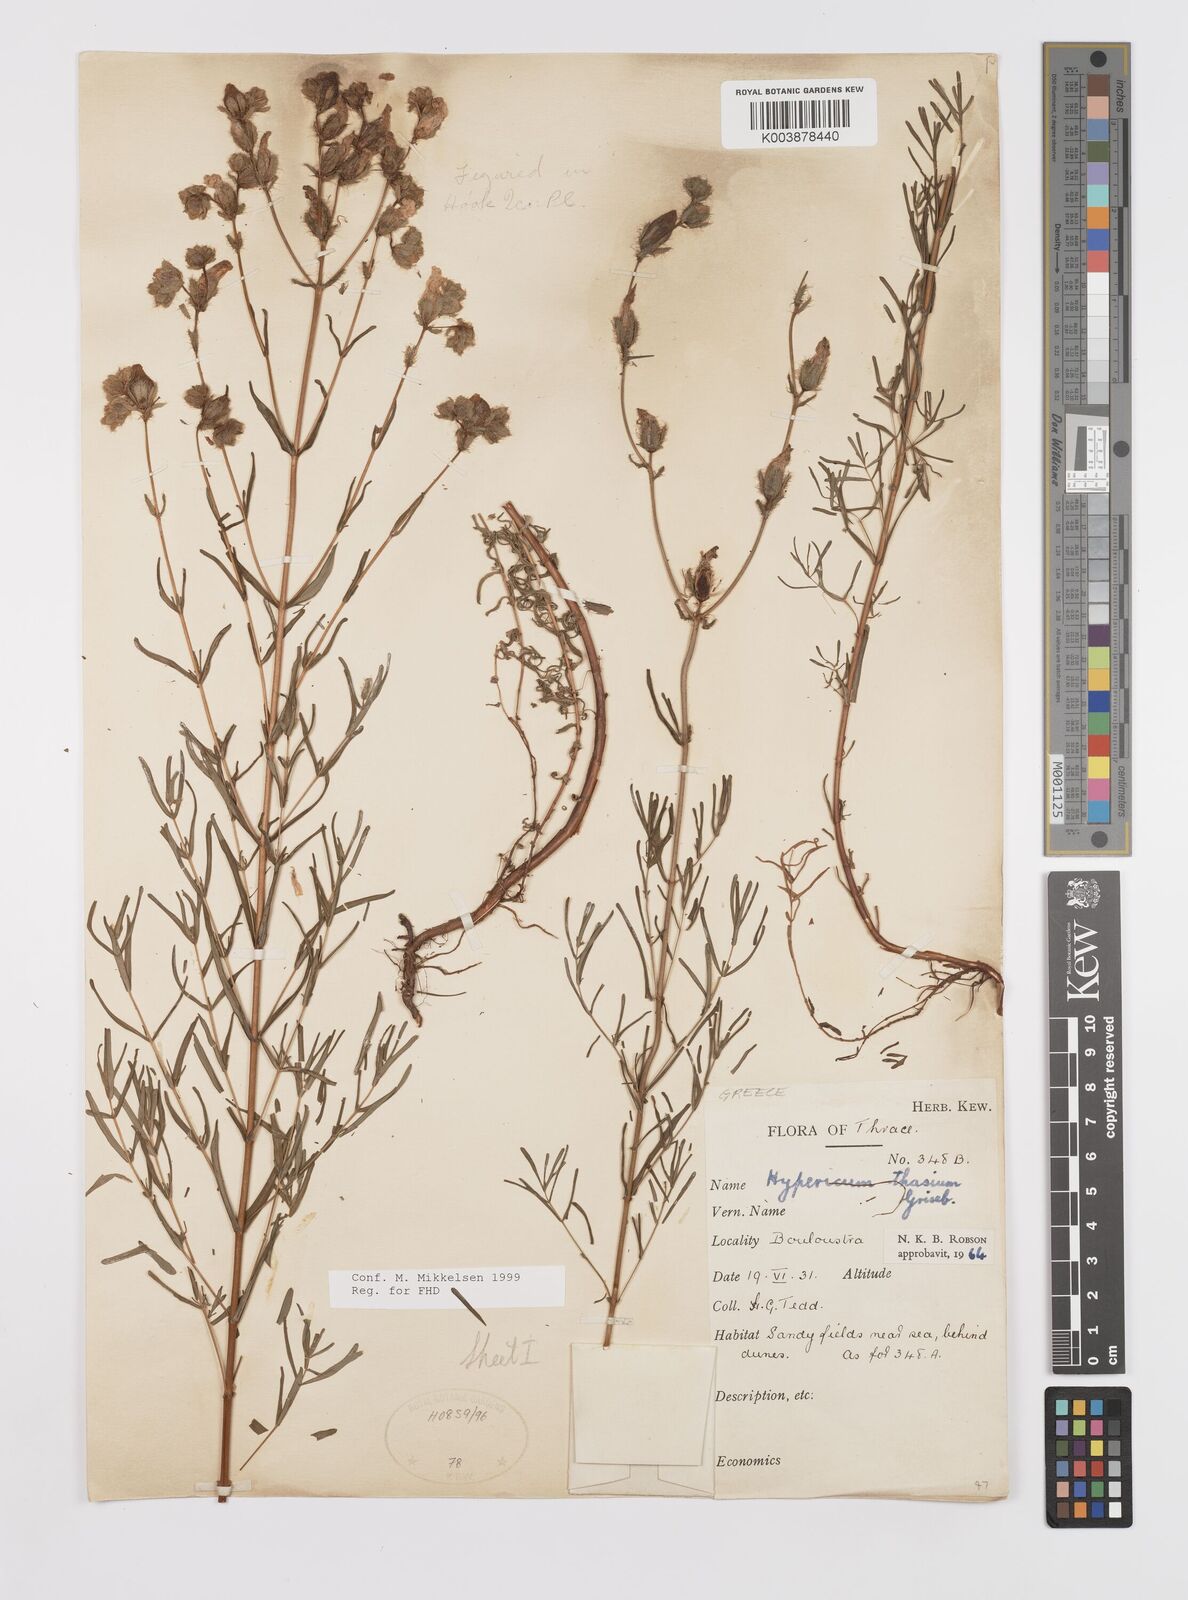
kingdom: Plantae
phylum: Tracheophyta
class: Magnoliopsida
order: Malpighiales
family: Hypericaceae
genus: Hypericum
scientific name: Hypericum thasium
